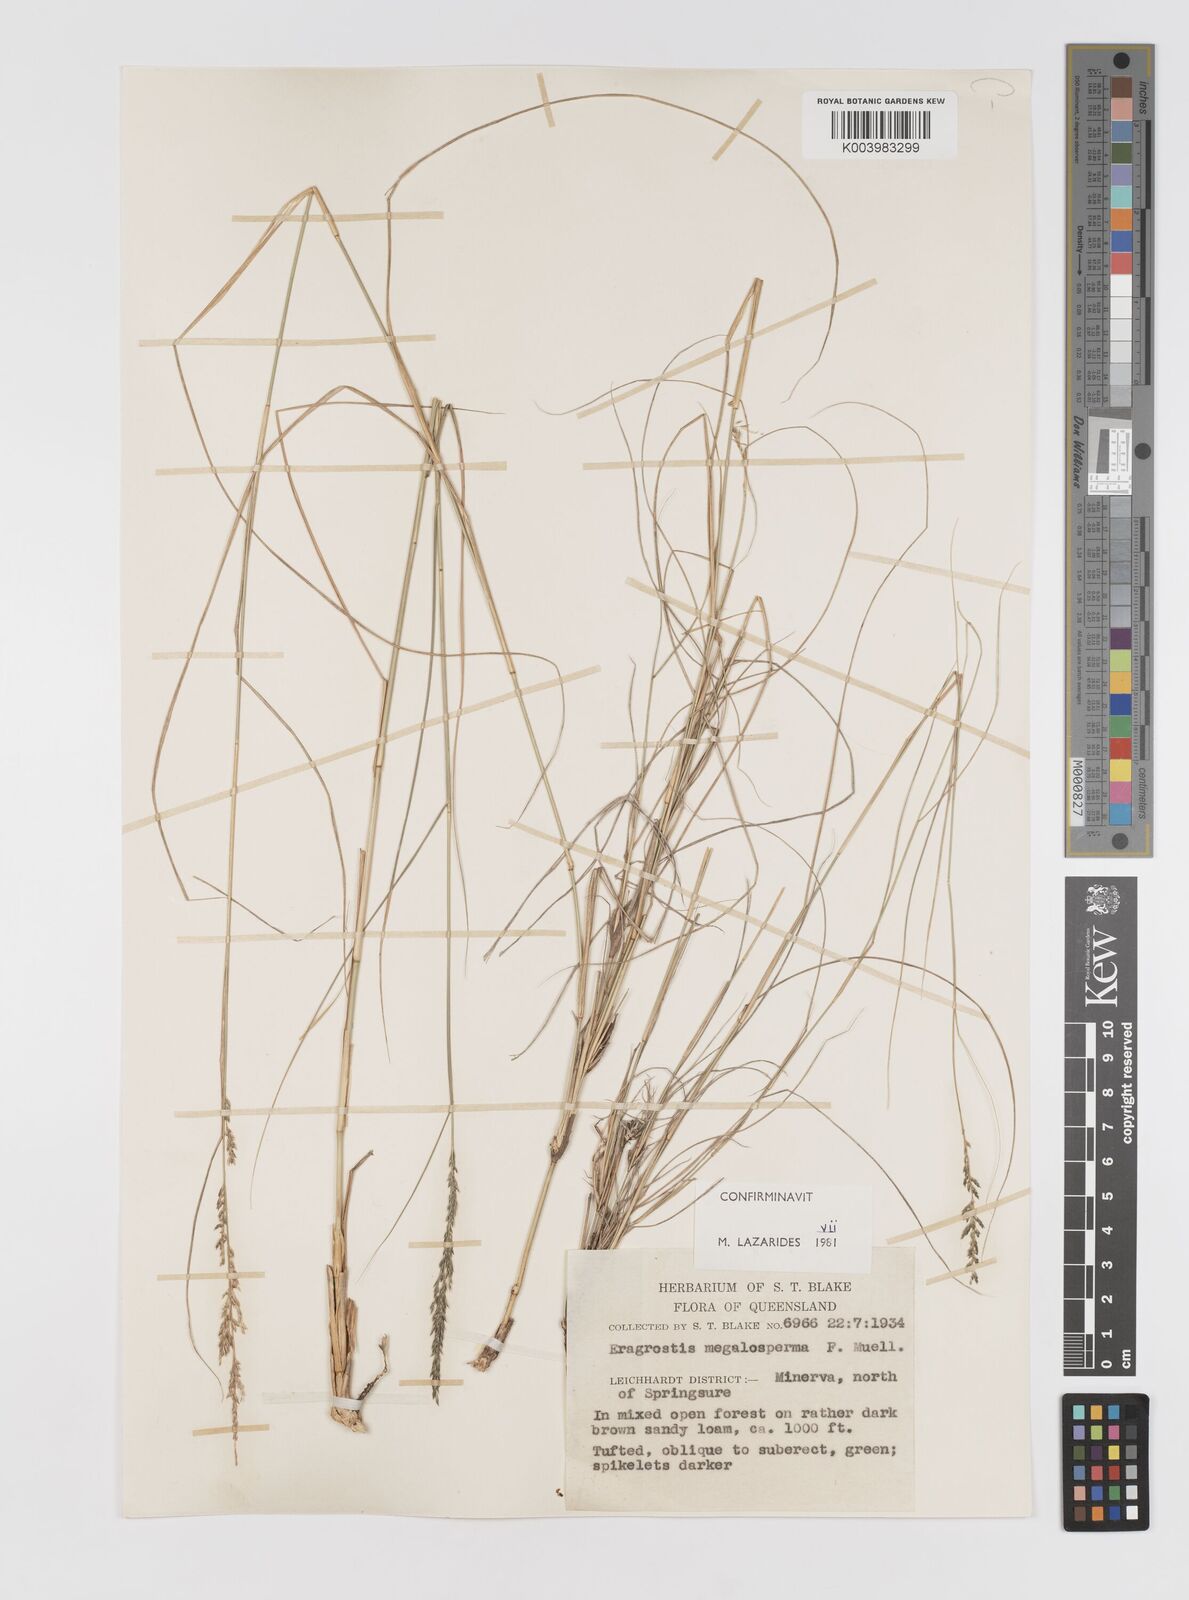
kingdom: Plantae
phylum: Tracheophyta
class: Liliopsida
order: Poales
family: Poaceae
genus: Sporobolus
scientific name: Sporobolus megalospermus
